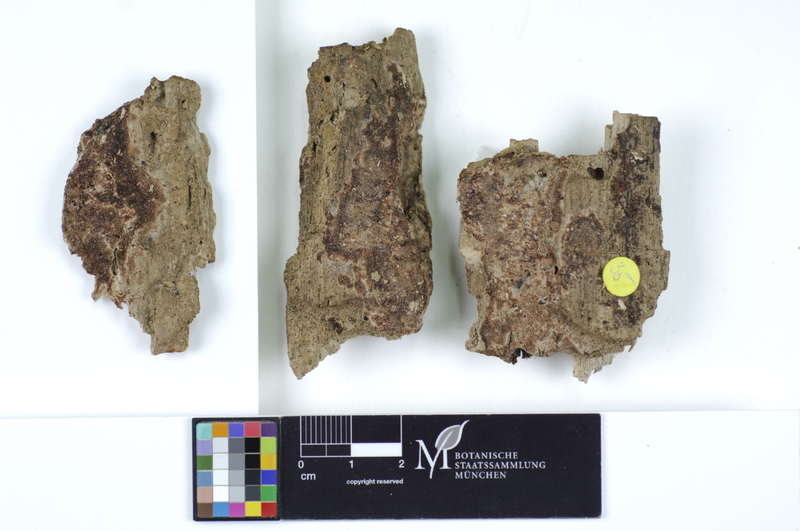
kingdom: Fungi
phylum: Basidiomycota
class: Agaricomycetes
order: Polyporales
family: Irpicaceae
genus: Ceriporia
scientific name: Ceriporia purpurea
